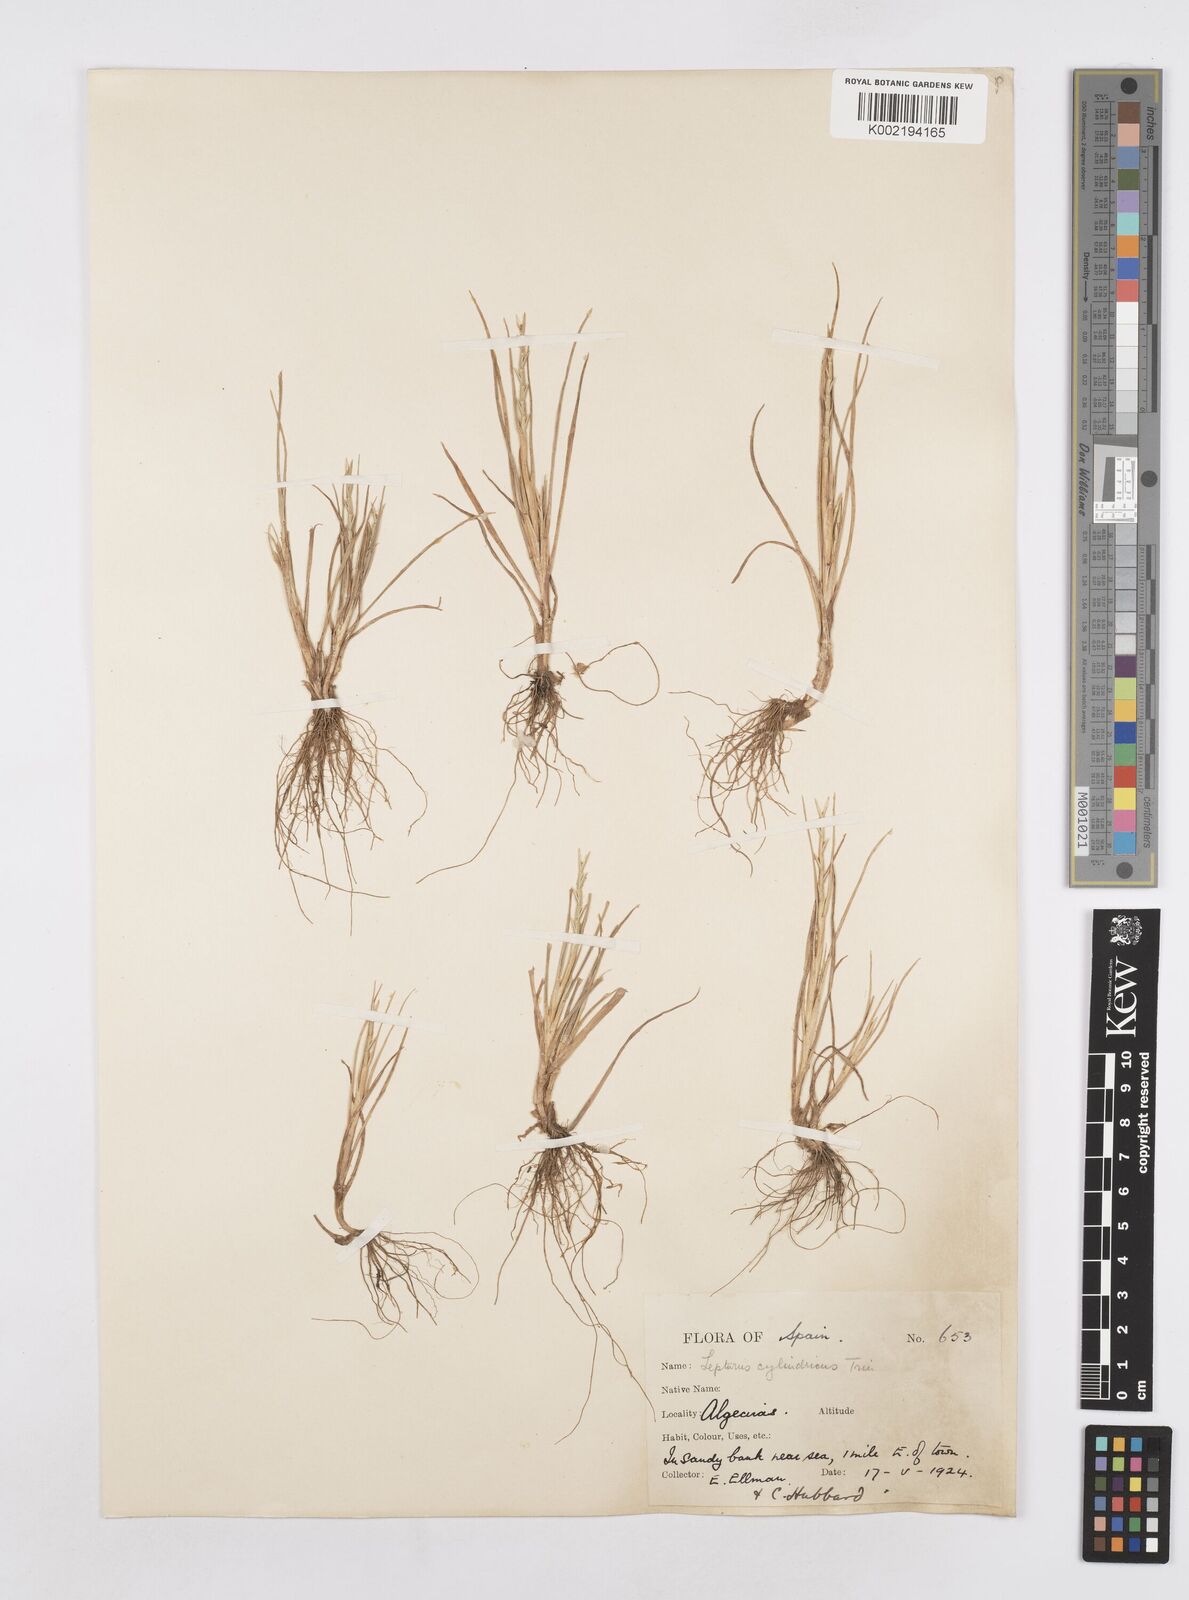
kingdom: Plantae
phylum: Tracheophyta
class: Liliopsida
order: Poales
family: Poaceae
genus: Parapholis
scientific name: Parapholis cylindrica
